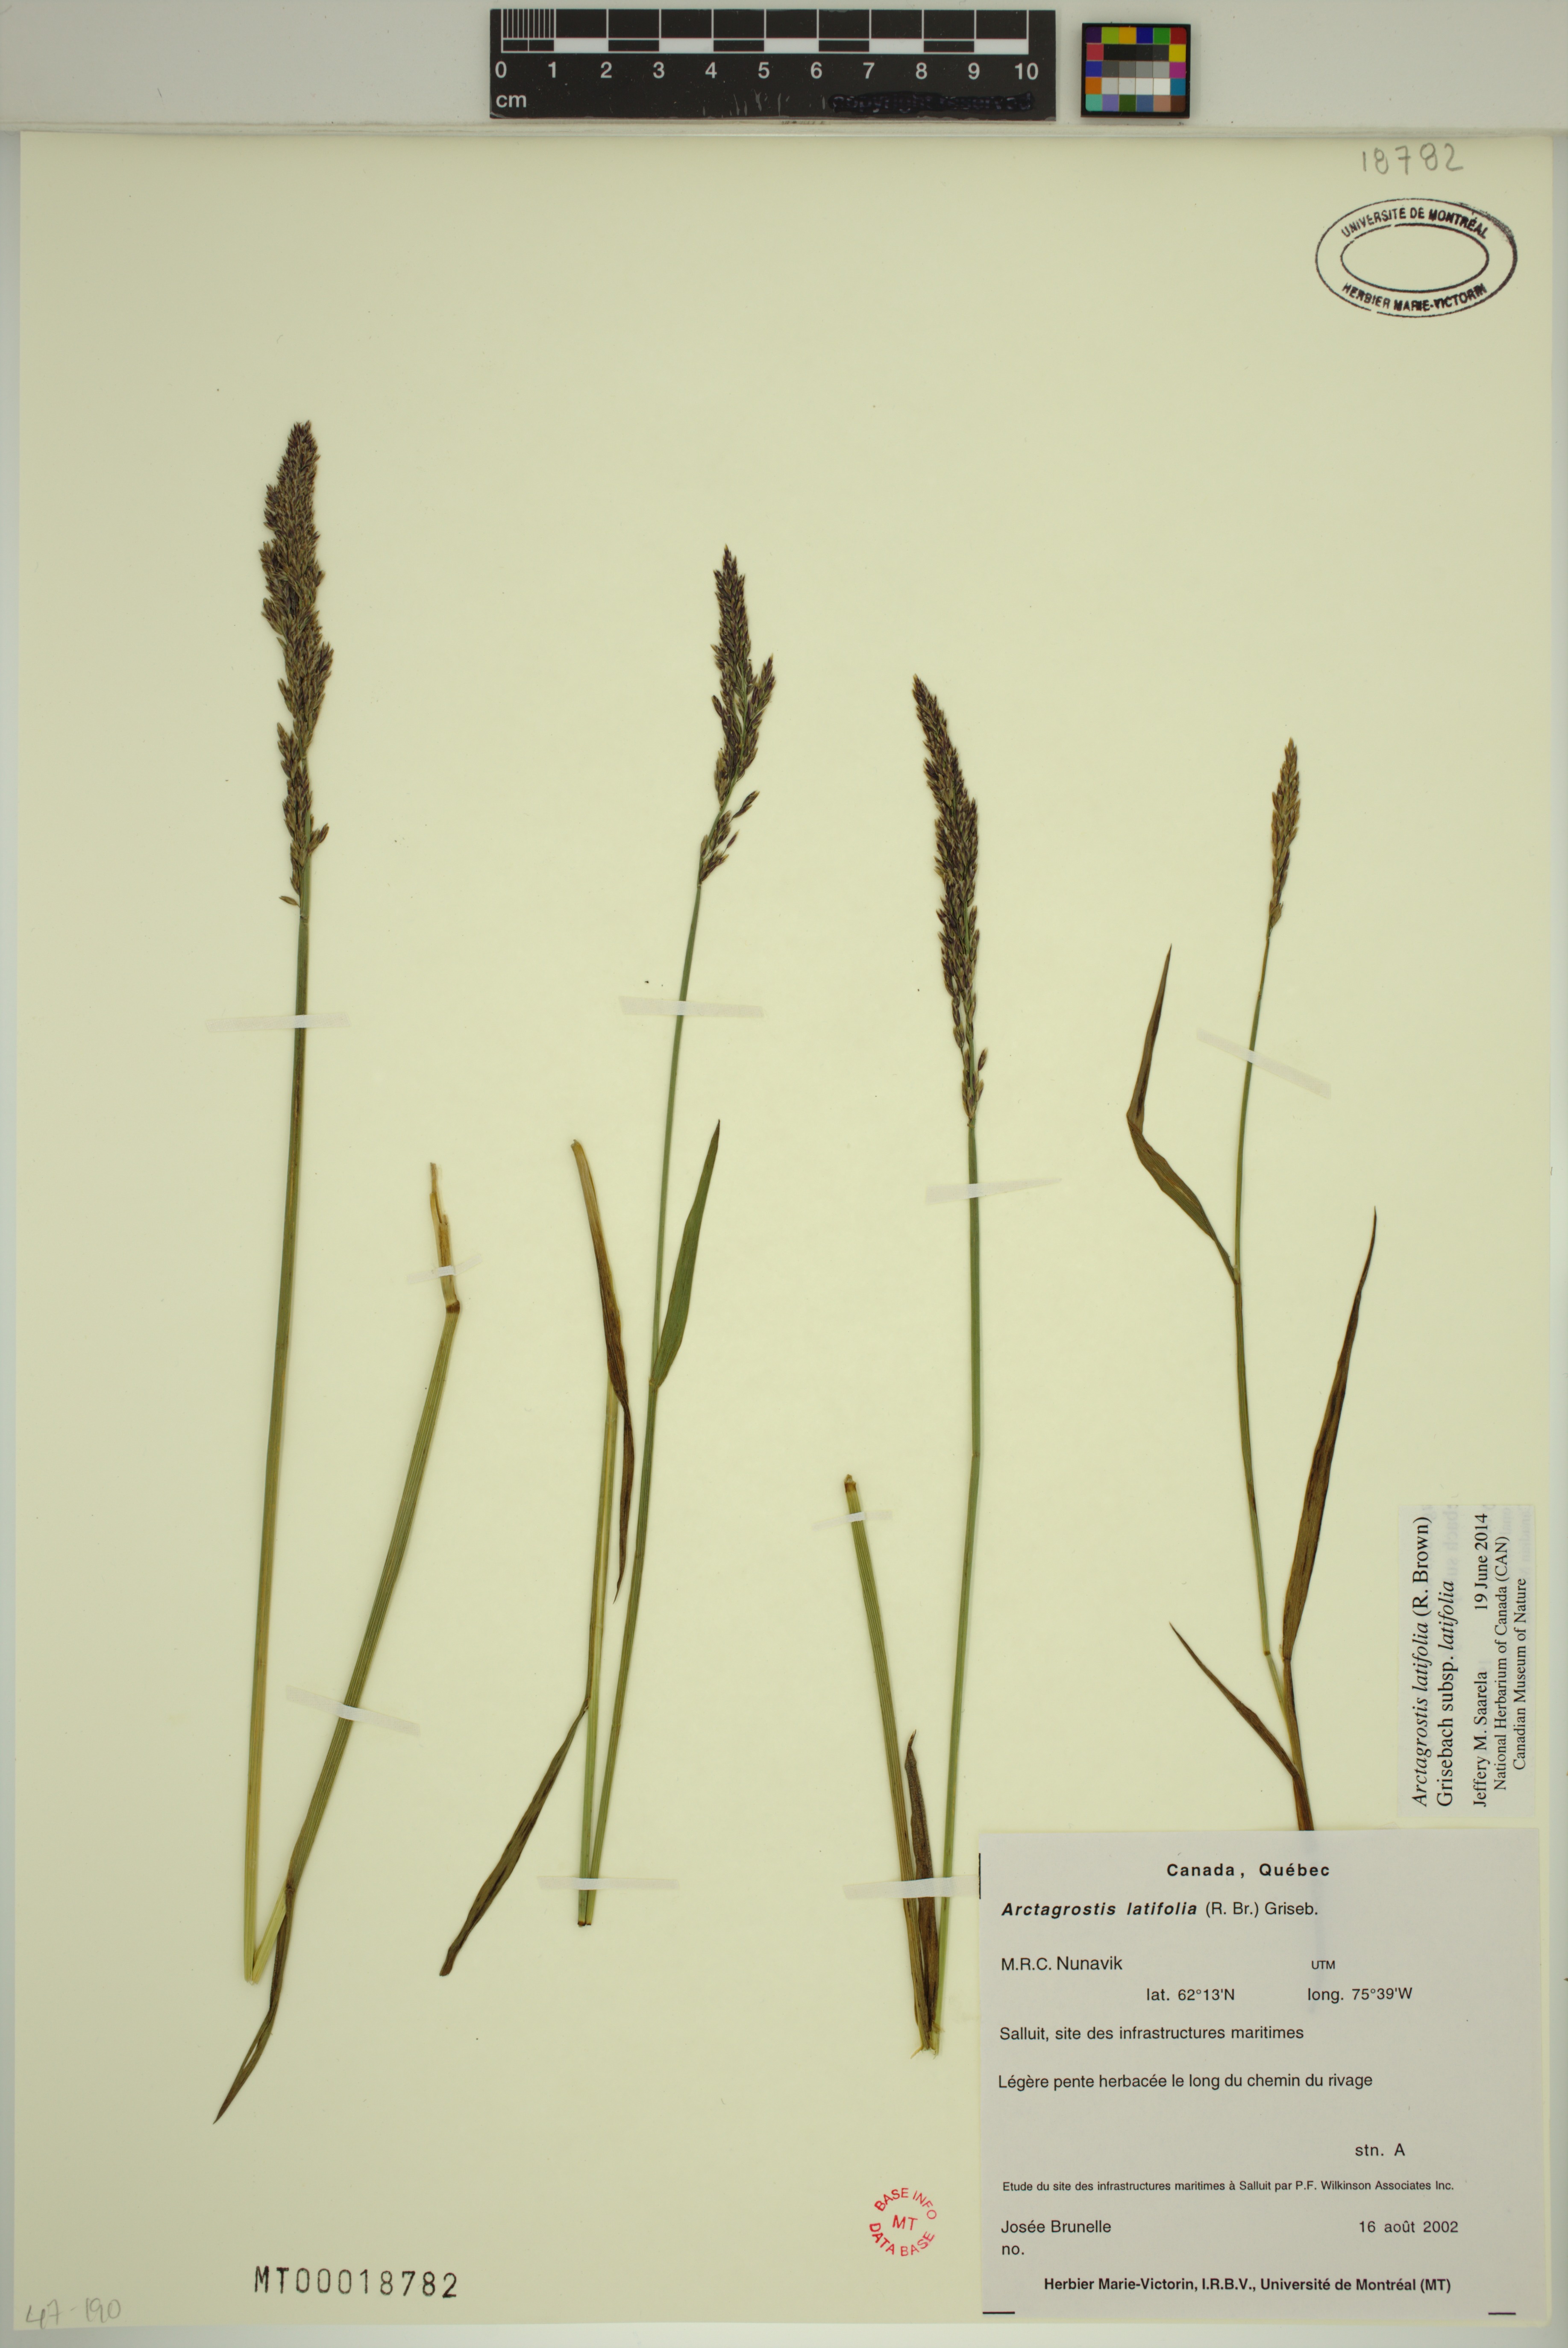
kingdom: Plantae
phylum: Tracheophyta
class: Liliopsida
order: Poales
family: Poaceae
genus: Arctagrostis
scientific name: Arctagrostis latifolia
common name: Arctic grass
